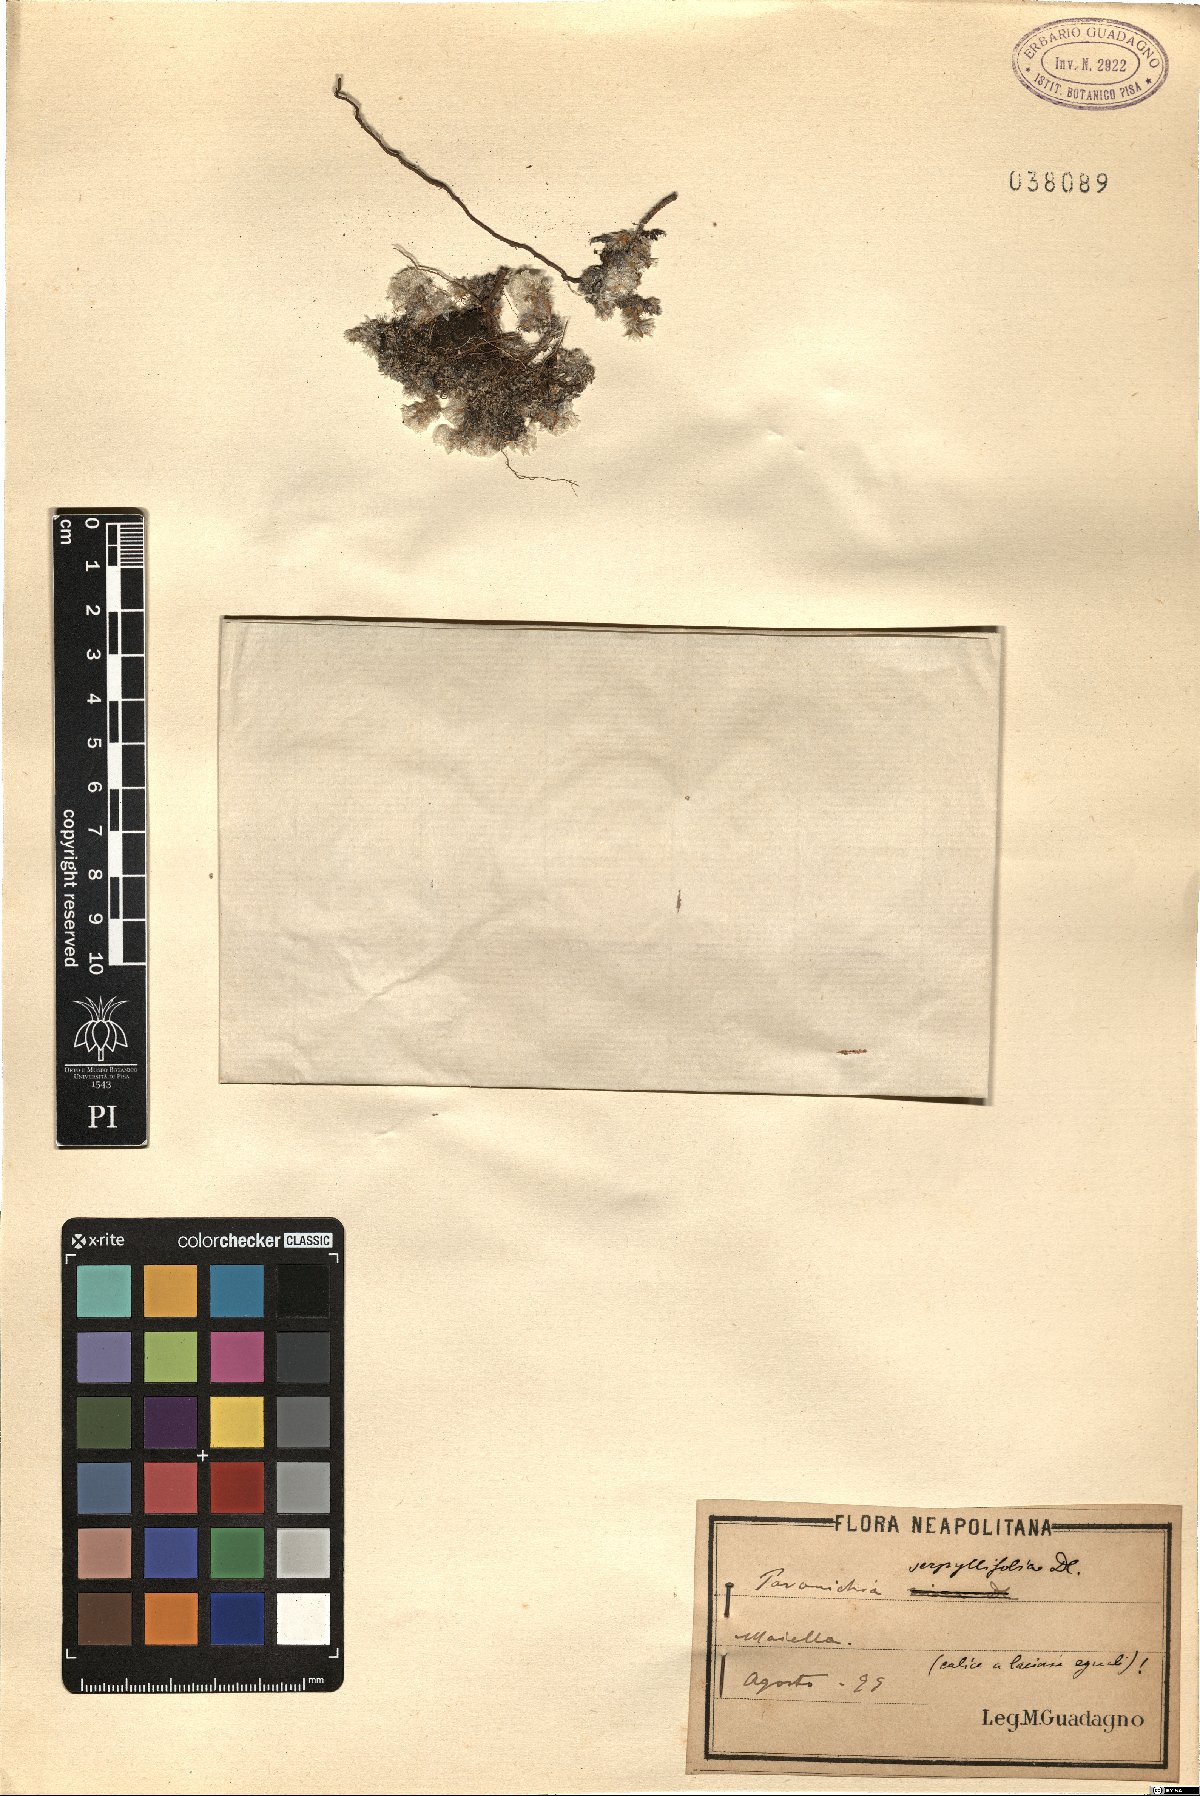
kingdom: Plantae
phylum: Tracheophyta
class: Magnoliopsida
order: Caryophyllales
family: Caryophyllaceae
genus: Paronychia
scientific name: Paronychia kapela
